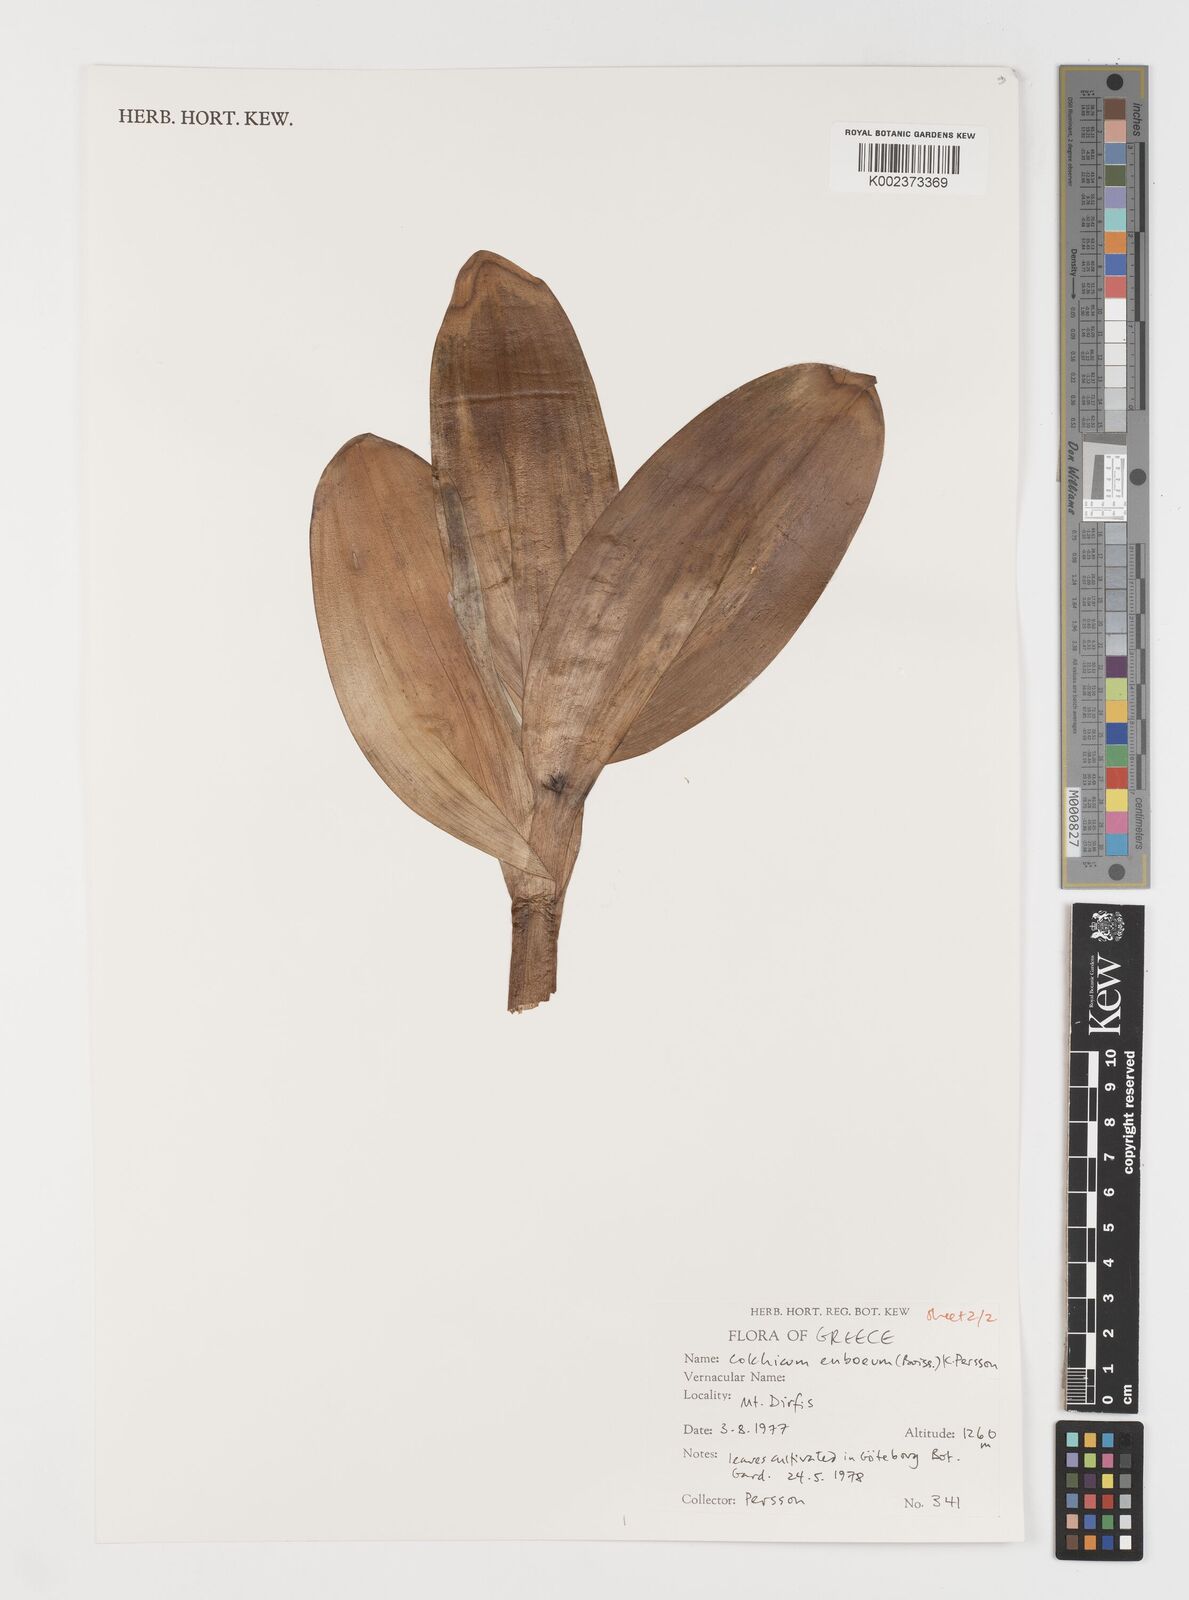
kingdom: Plantae
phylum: Tracheophyta
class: Liliopsida
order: Liliales
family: Colchicaceae
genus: Colchicum
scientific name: Colchicum euboeum
